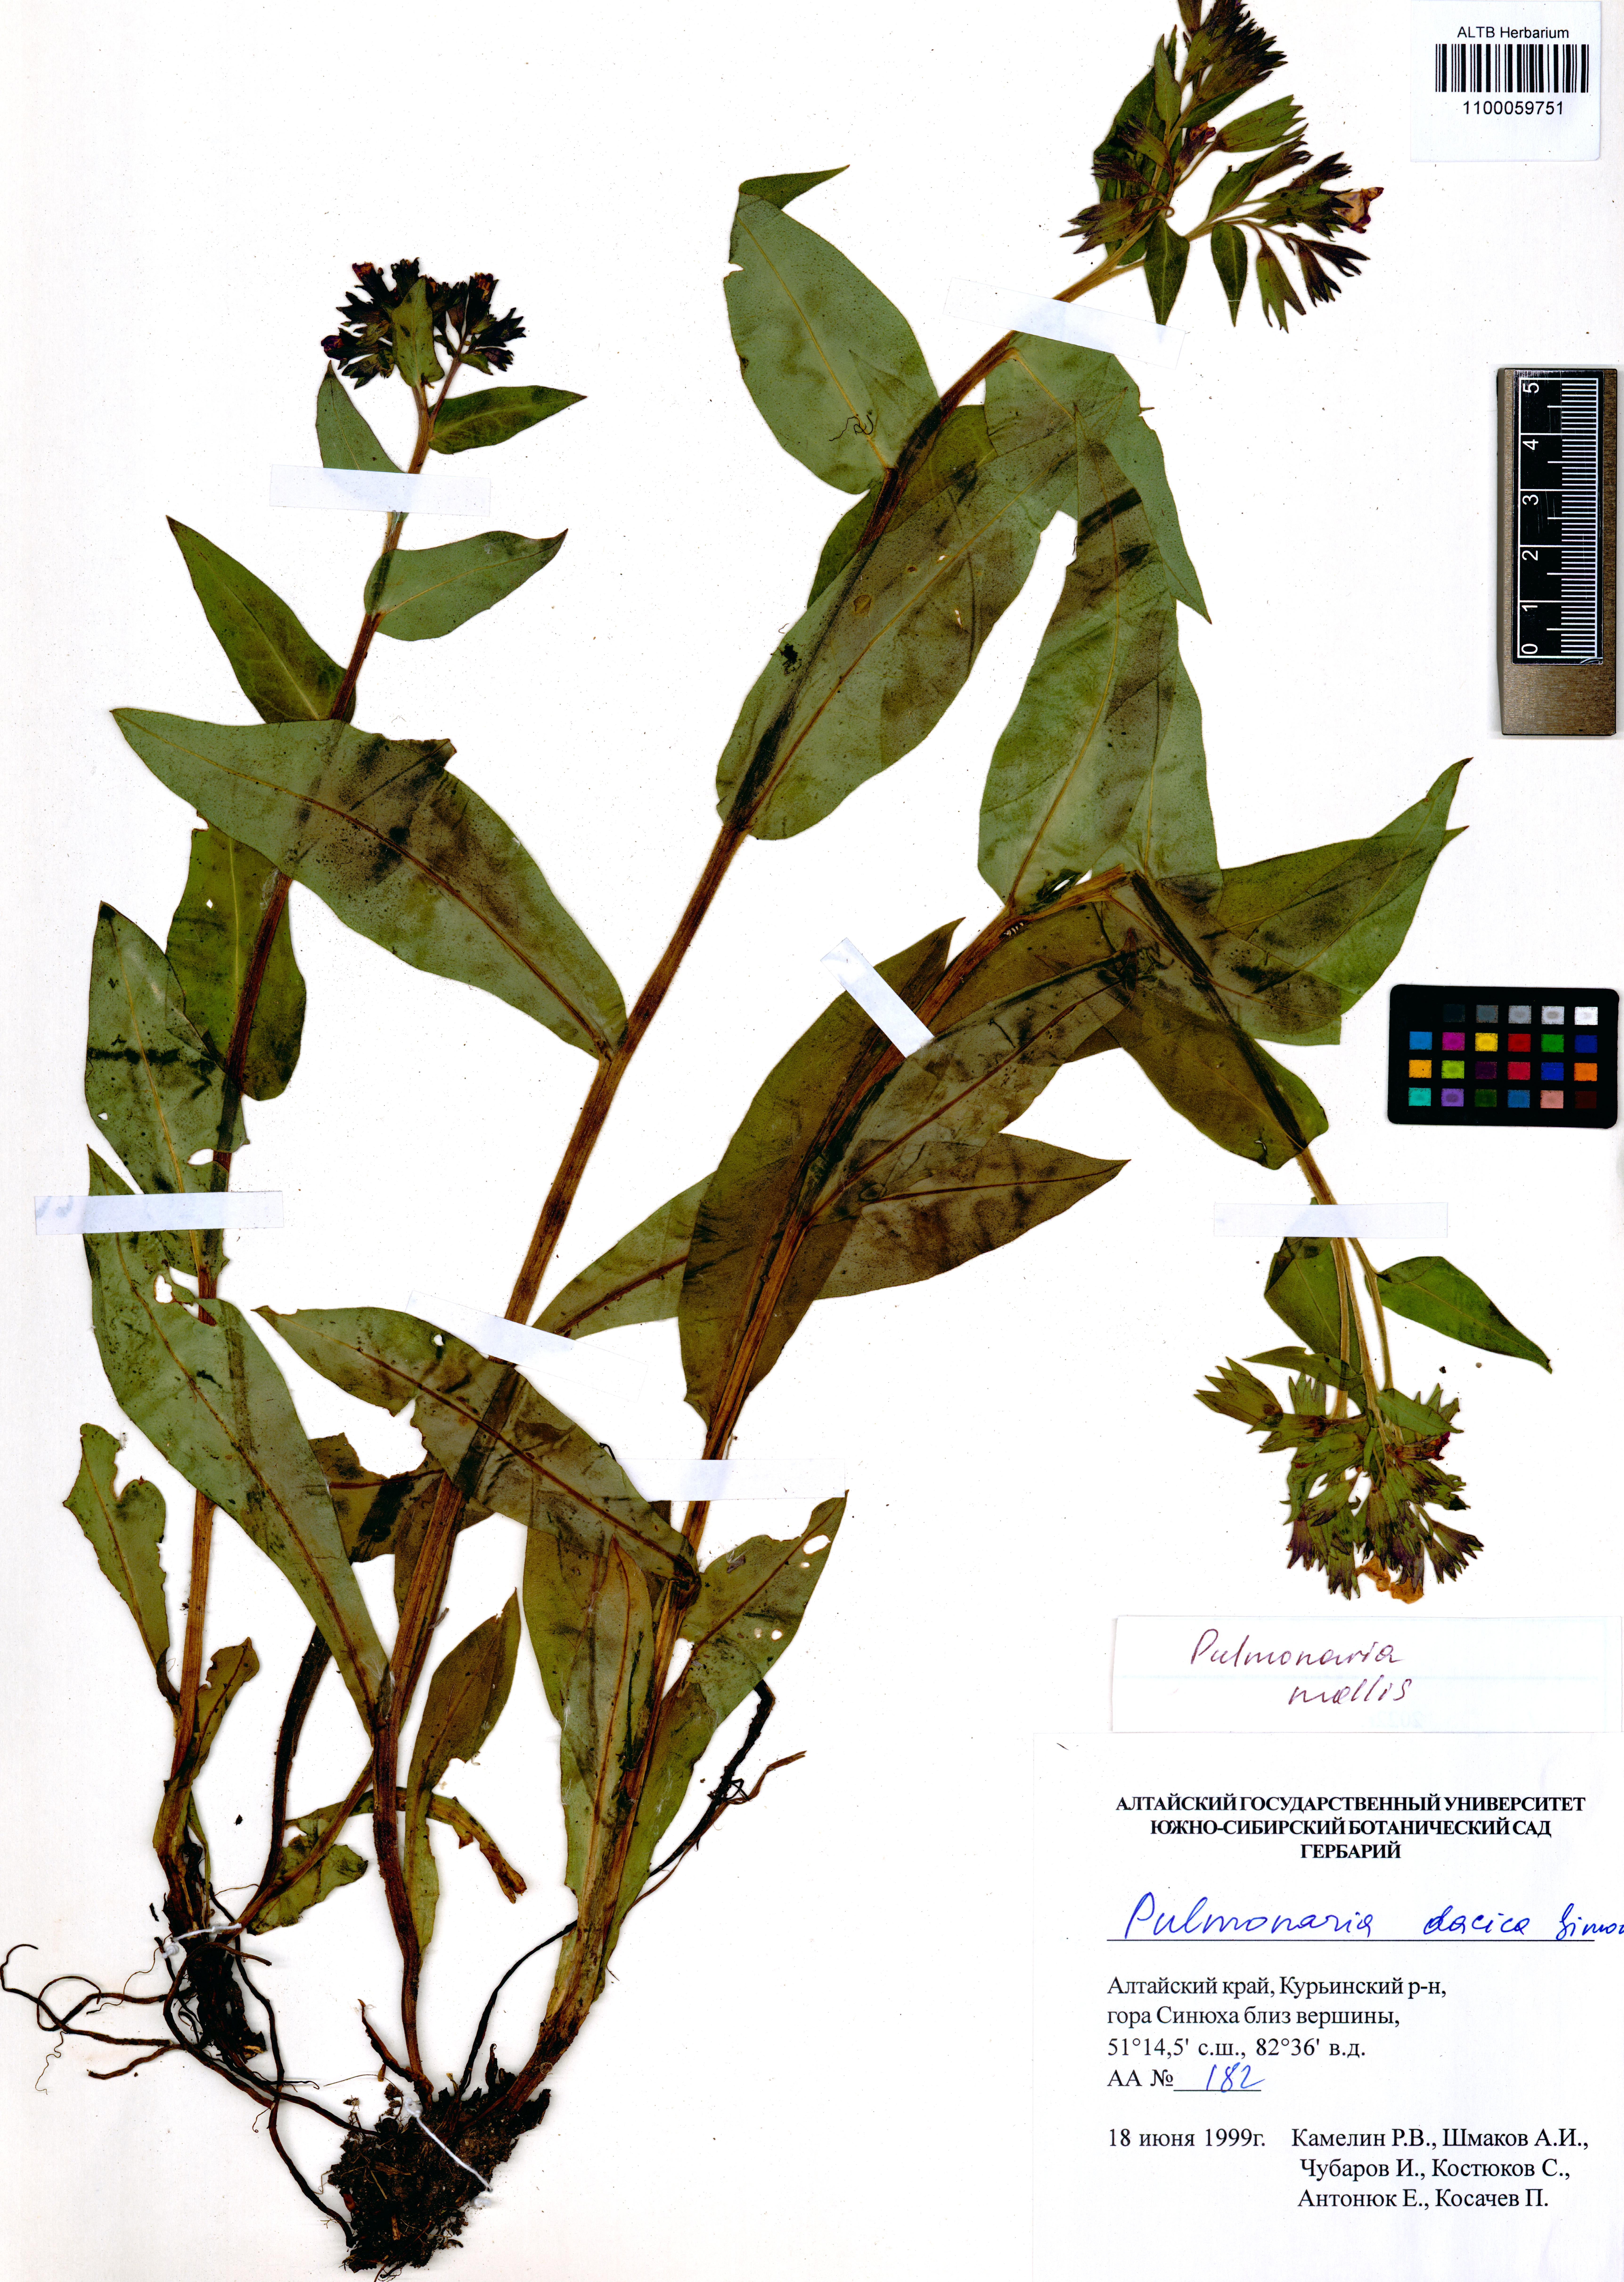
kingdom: Plantae
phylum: Tracheophyta
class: Magnoliopsida
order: Boraginales
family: Boraginaceae
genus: Pulmonaria
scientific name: Pulmonaria mollis
